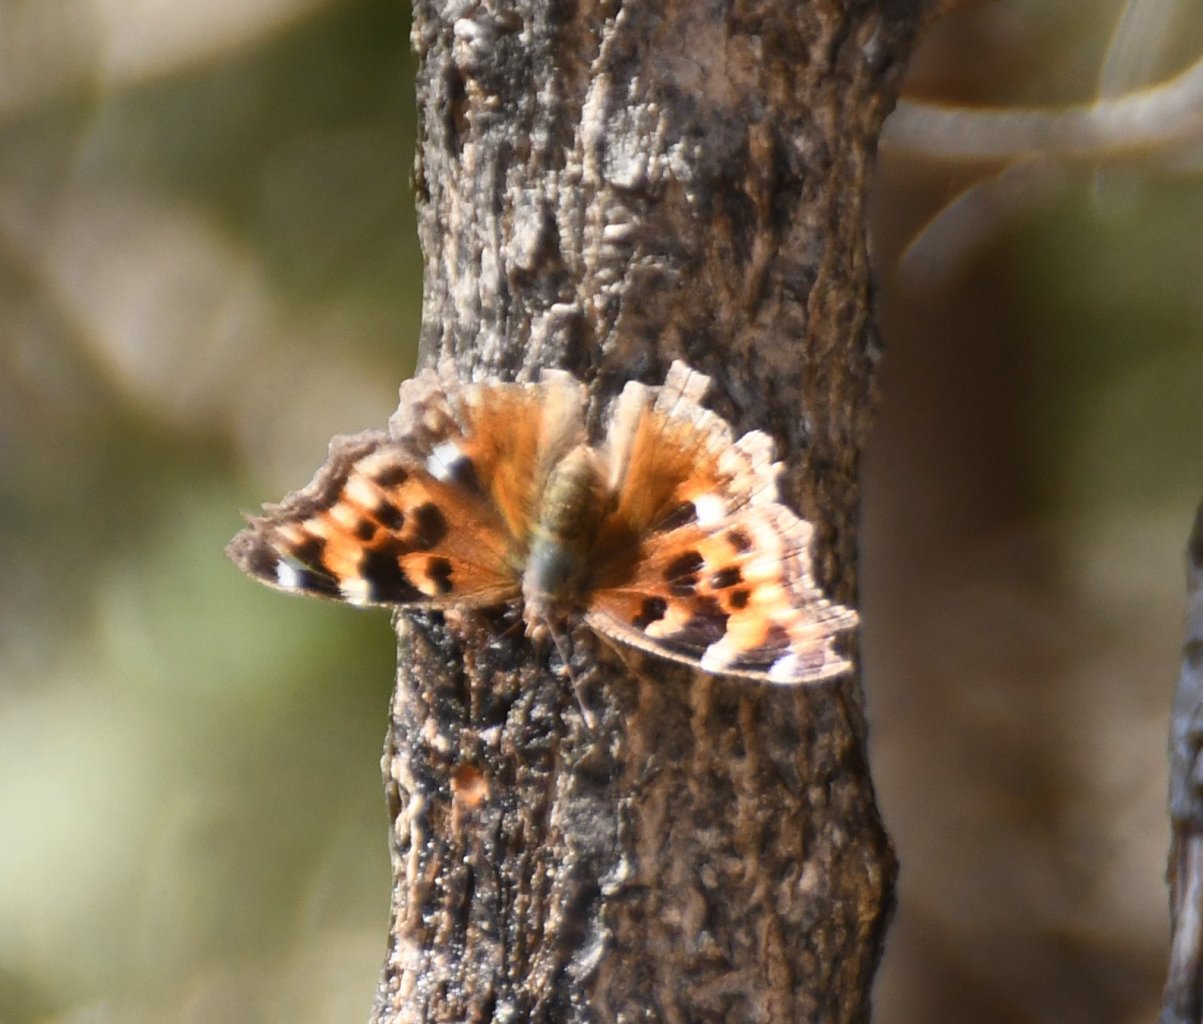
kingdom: Animalia
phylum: Arthropoda
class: Insecta
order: Lepidoptera
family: Nymphalidae
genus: Polygonia
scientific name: Polygonia vaualbum
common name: Compton Tortoiseshell
